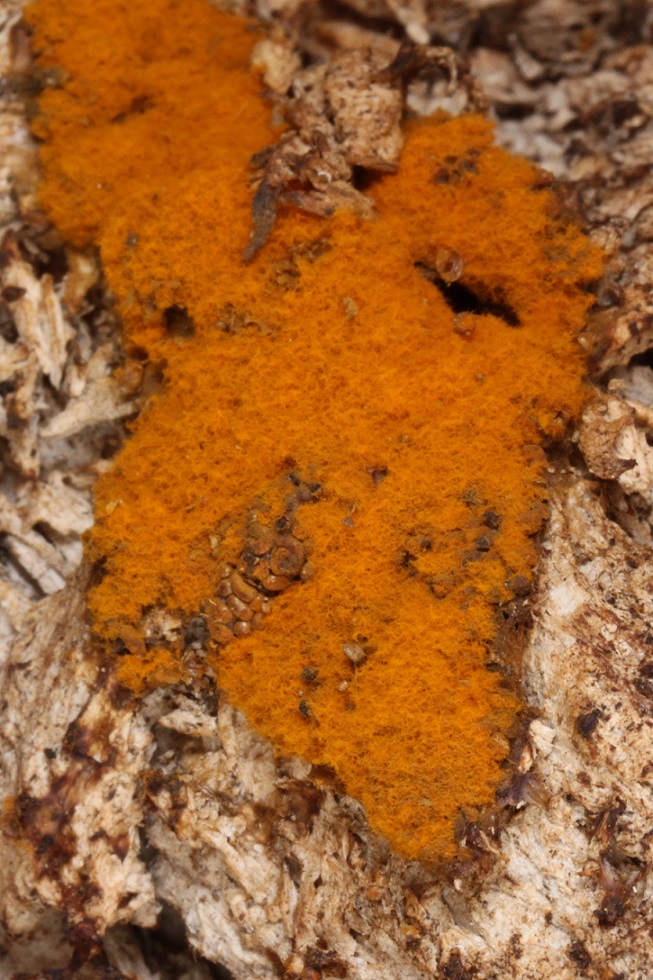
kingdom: Protozoa
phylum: Mycetozoa
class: Myxomycetes
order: Trichiales
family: Trichiaceae
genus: Trichia
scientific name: Trichia scabra
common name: tæppe-hårbold
